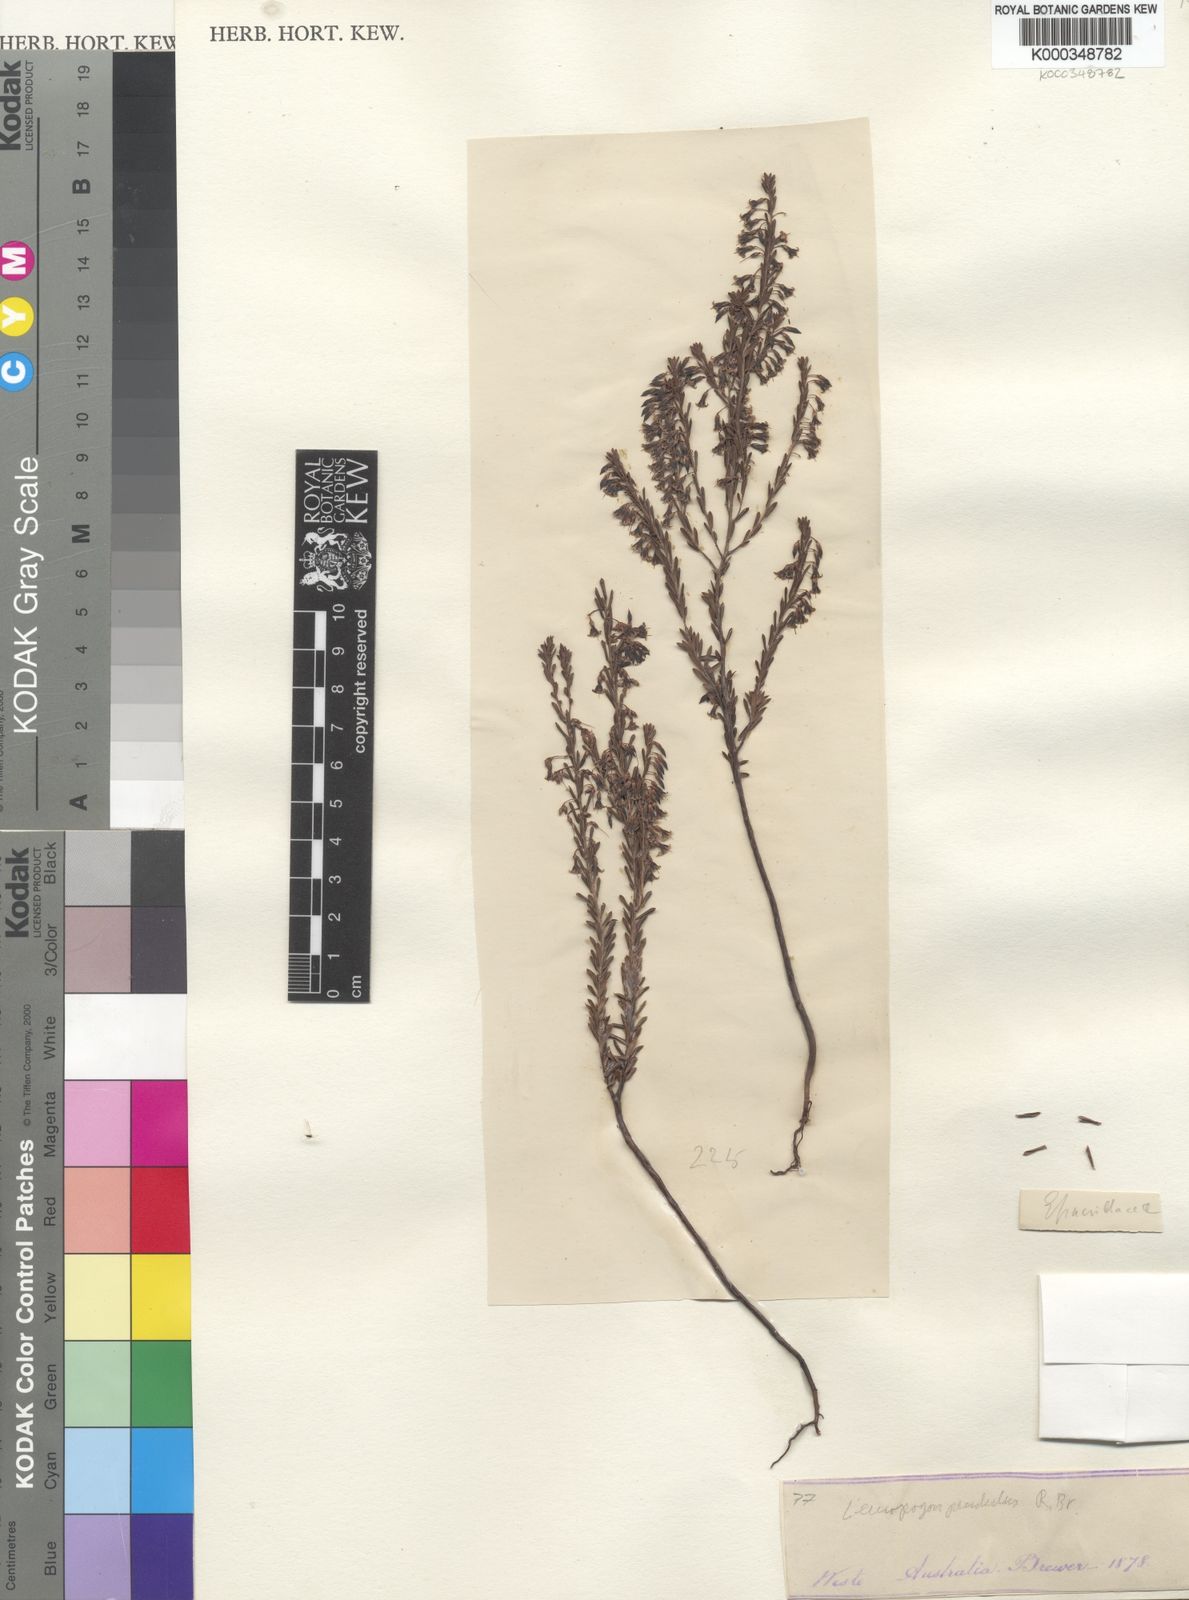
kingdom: Plantae
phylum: Tracheophyta
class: Magnoliopsida
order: Ericales
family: Ericaceae
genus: Styphelia
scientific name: Styphelia pendula
